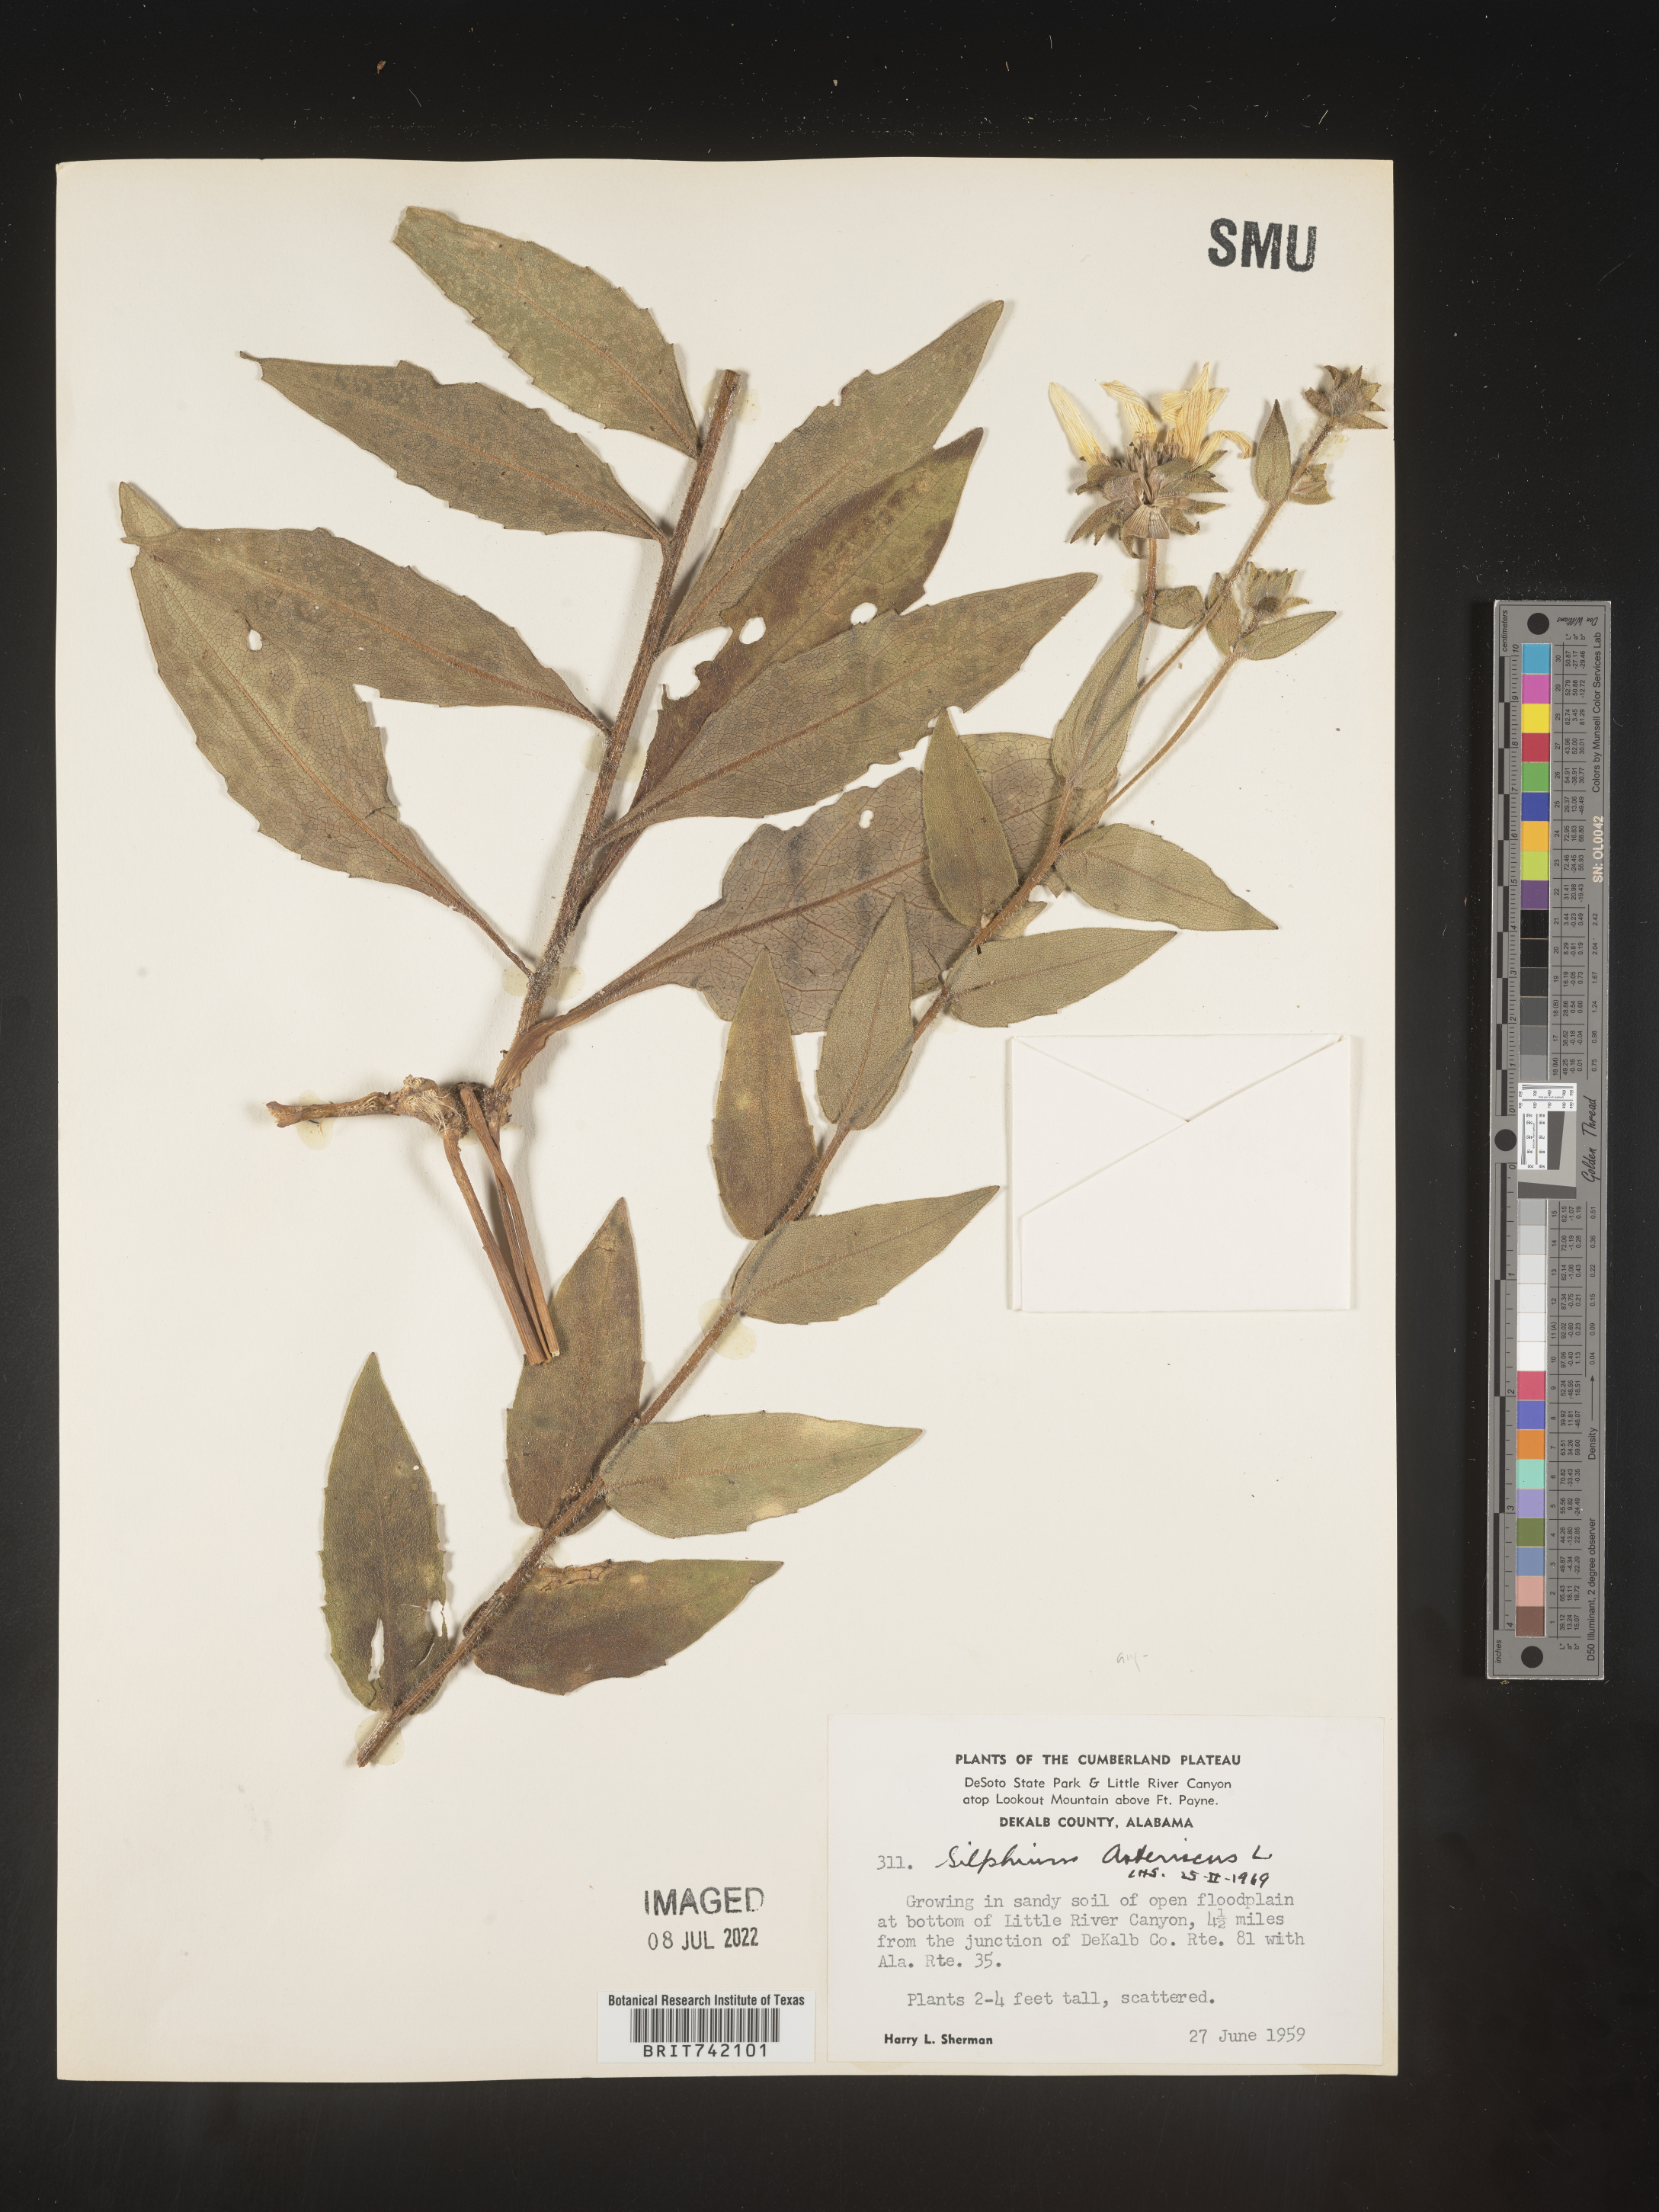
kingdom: Plantae
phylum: Tracheophyta
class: Magnoliopsida
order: Asterales
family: Asteraceae
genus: Silphium
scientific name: Silphium asperrimum
